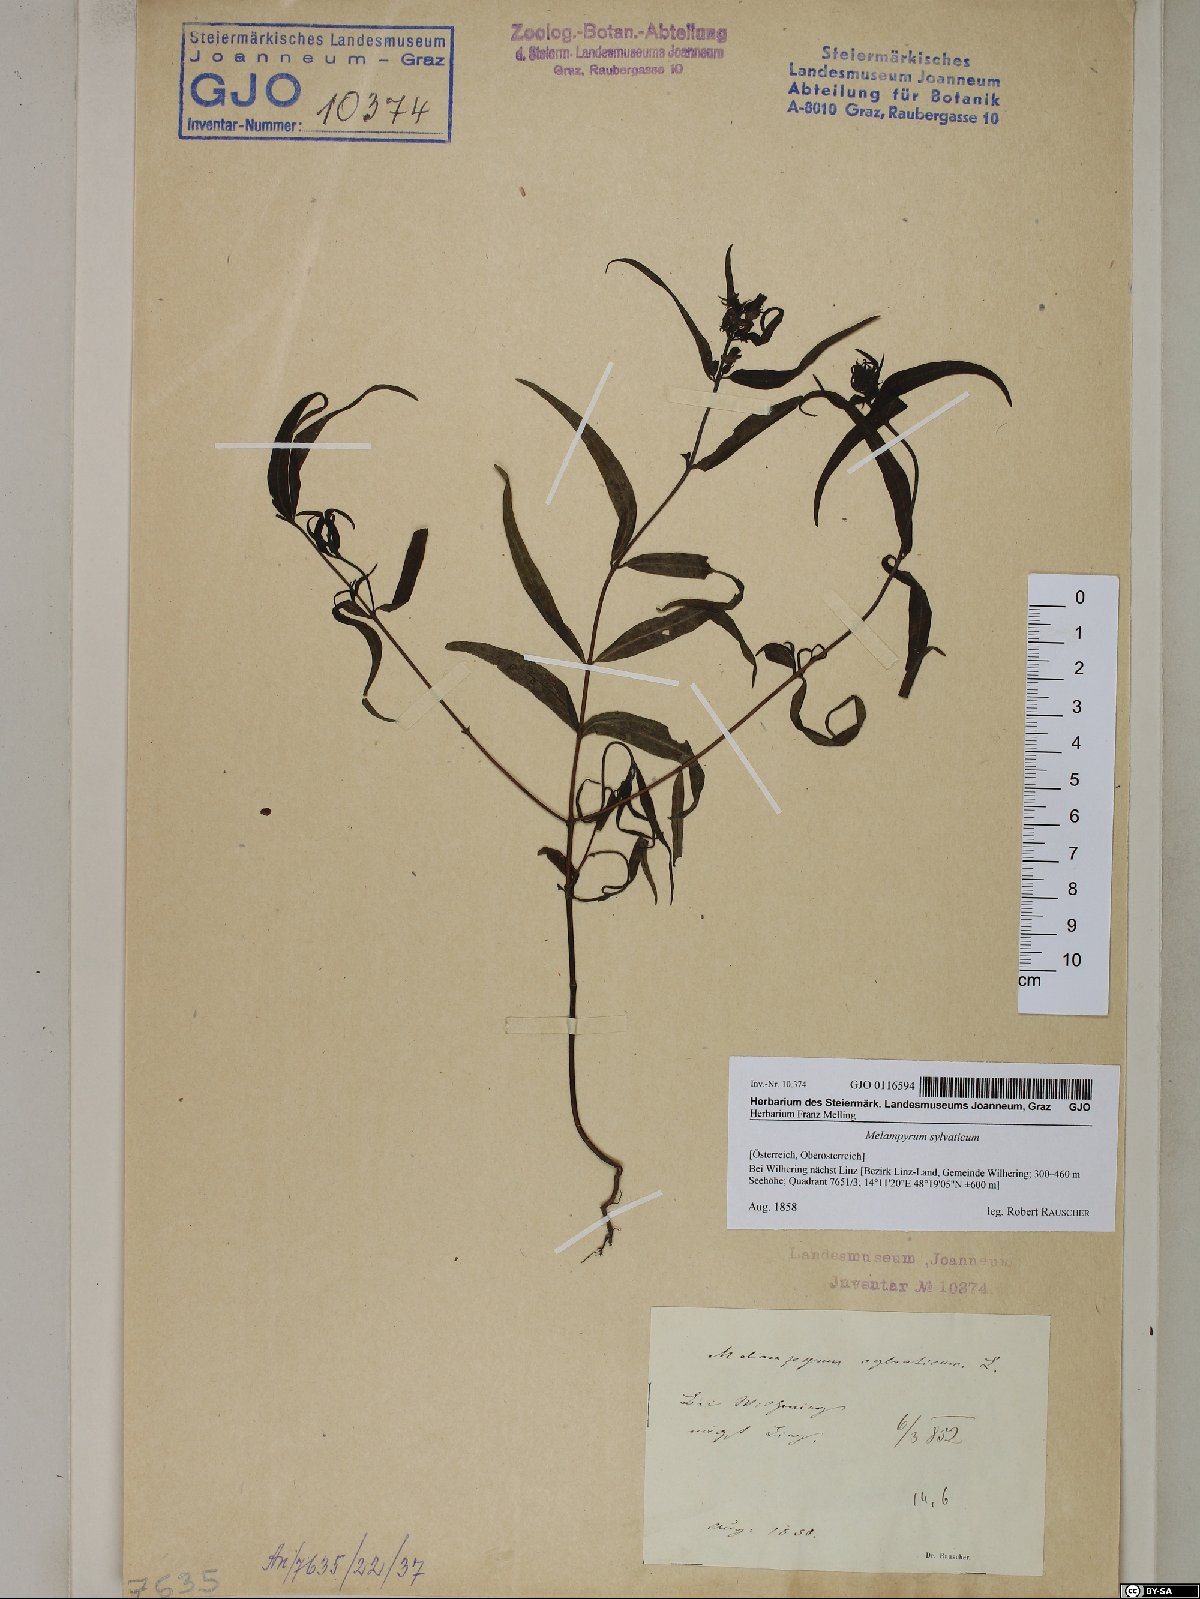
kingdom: Plantae
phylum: Tracheophyta
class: Magnoliopsida
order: Lamiales
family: Orobanchaceae
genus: Melampyrum
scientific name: Melampyrum sylvaticum
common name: Small cow-wheat
